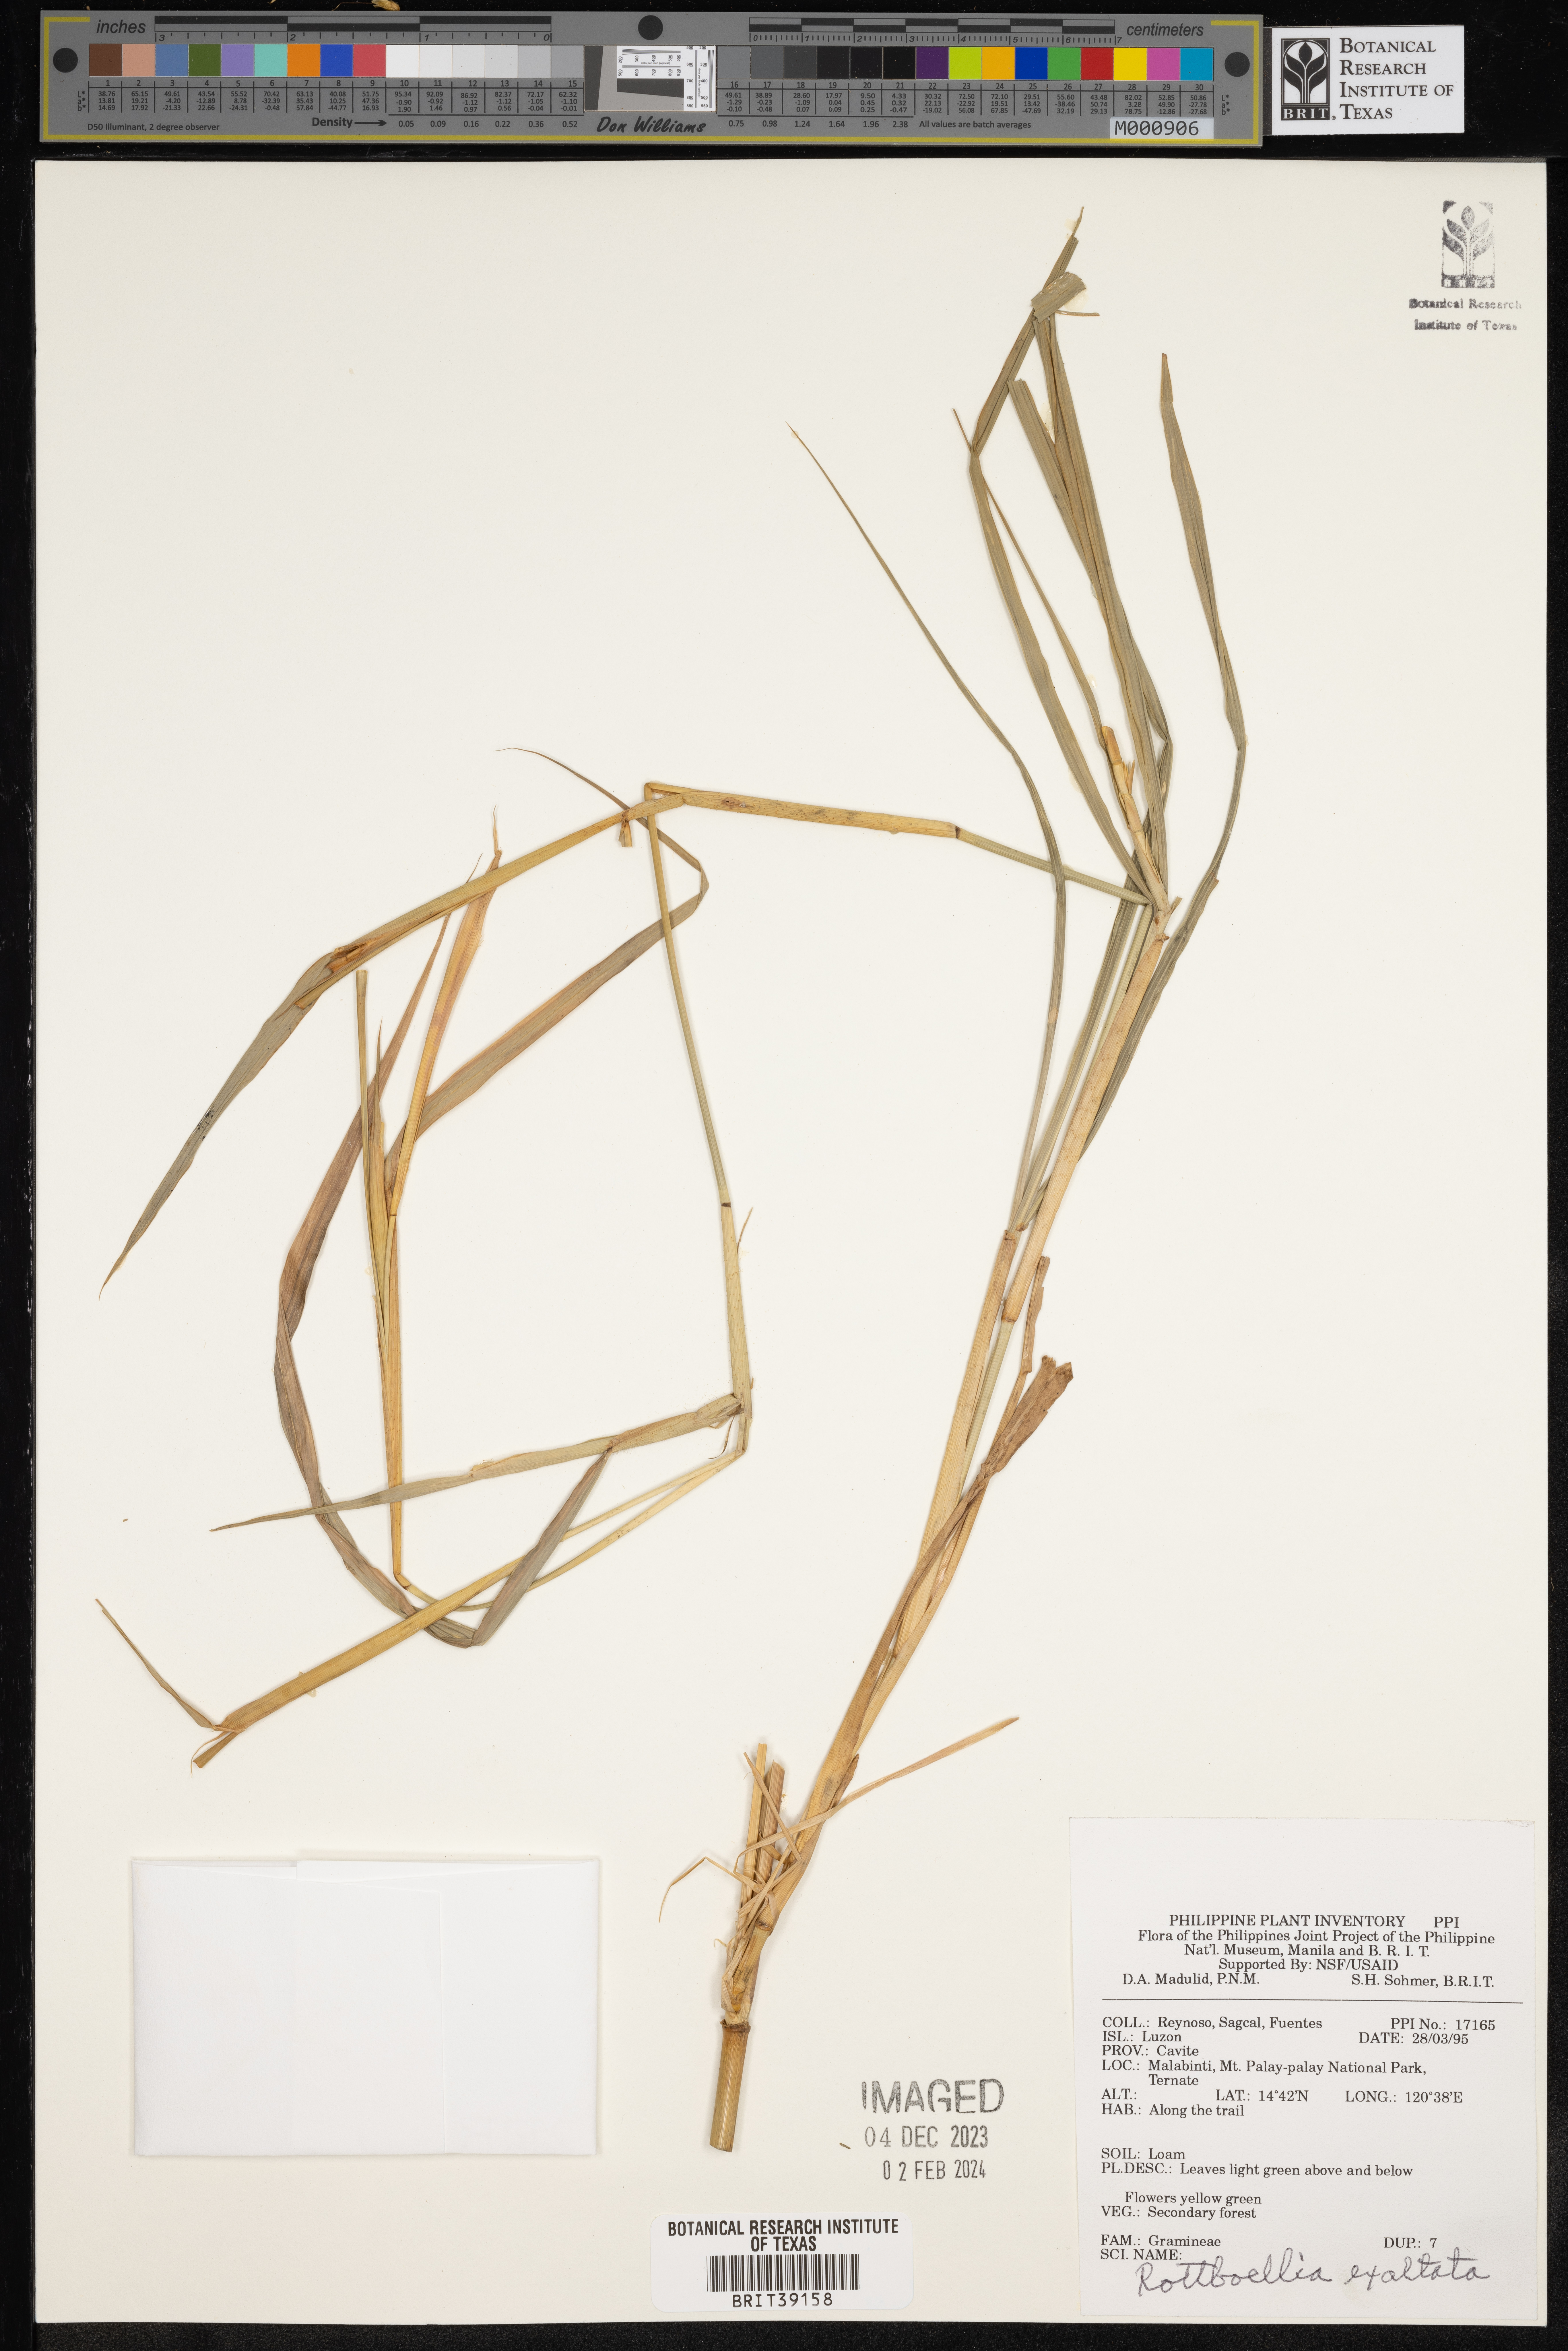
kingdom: Plantae
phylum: Tracheophyta
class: Liliopsida
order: Poales
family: Poaceae
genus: Rottboellia
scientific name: Rottboellia cochinchinensis
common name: Itchgrass
